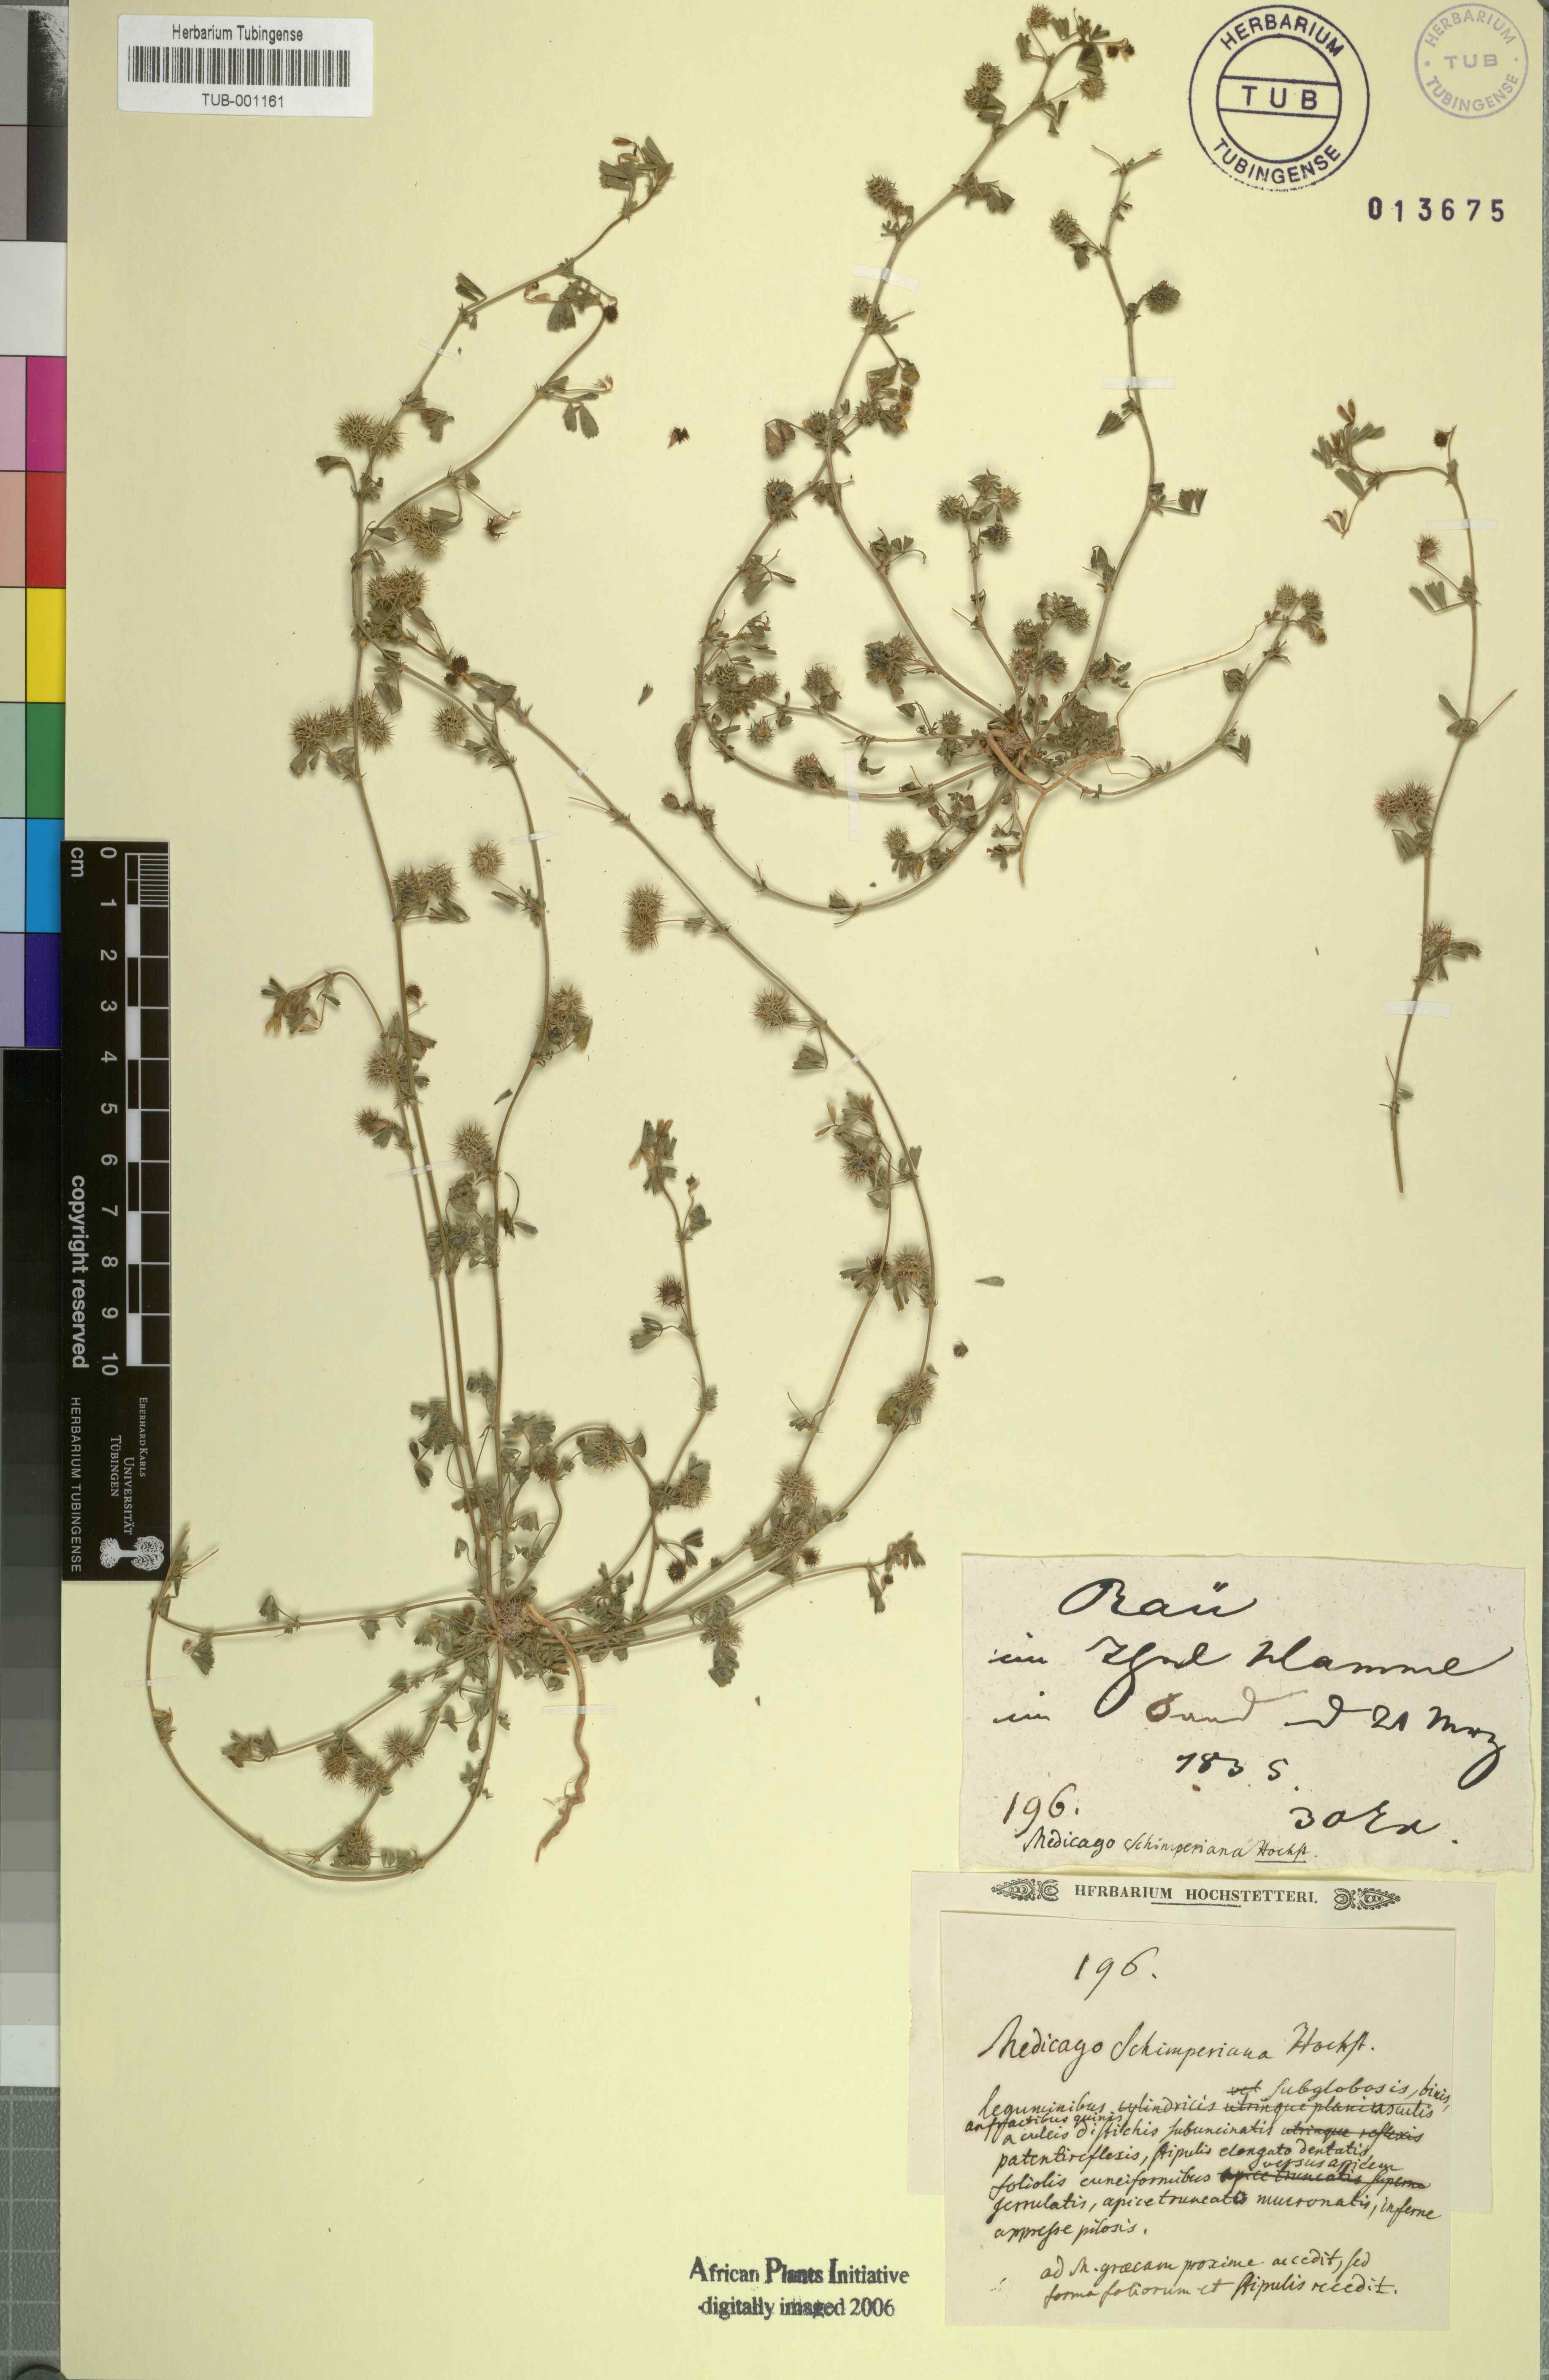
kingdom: Plantae
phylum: Tracheophyta
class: Magnoliopsida
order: Fabales
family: Fabaceae
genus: Medicago
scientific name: Medicago laciniata
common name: Tattered medick
